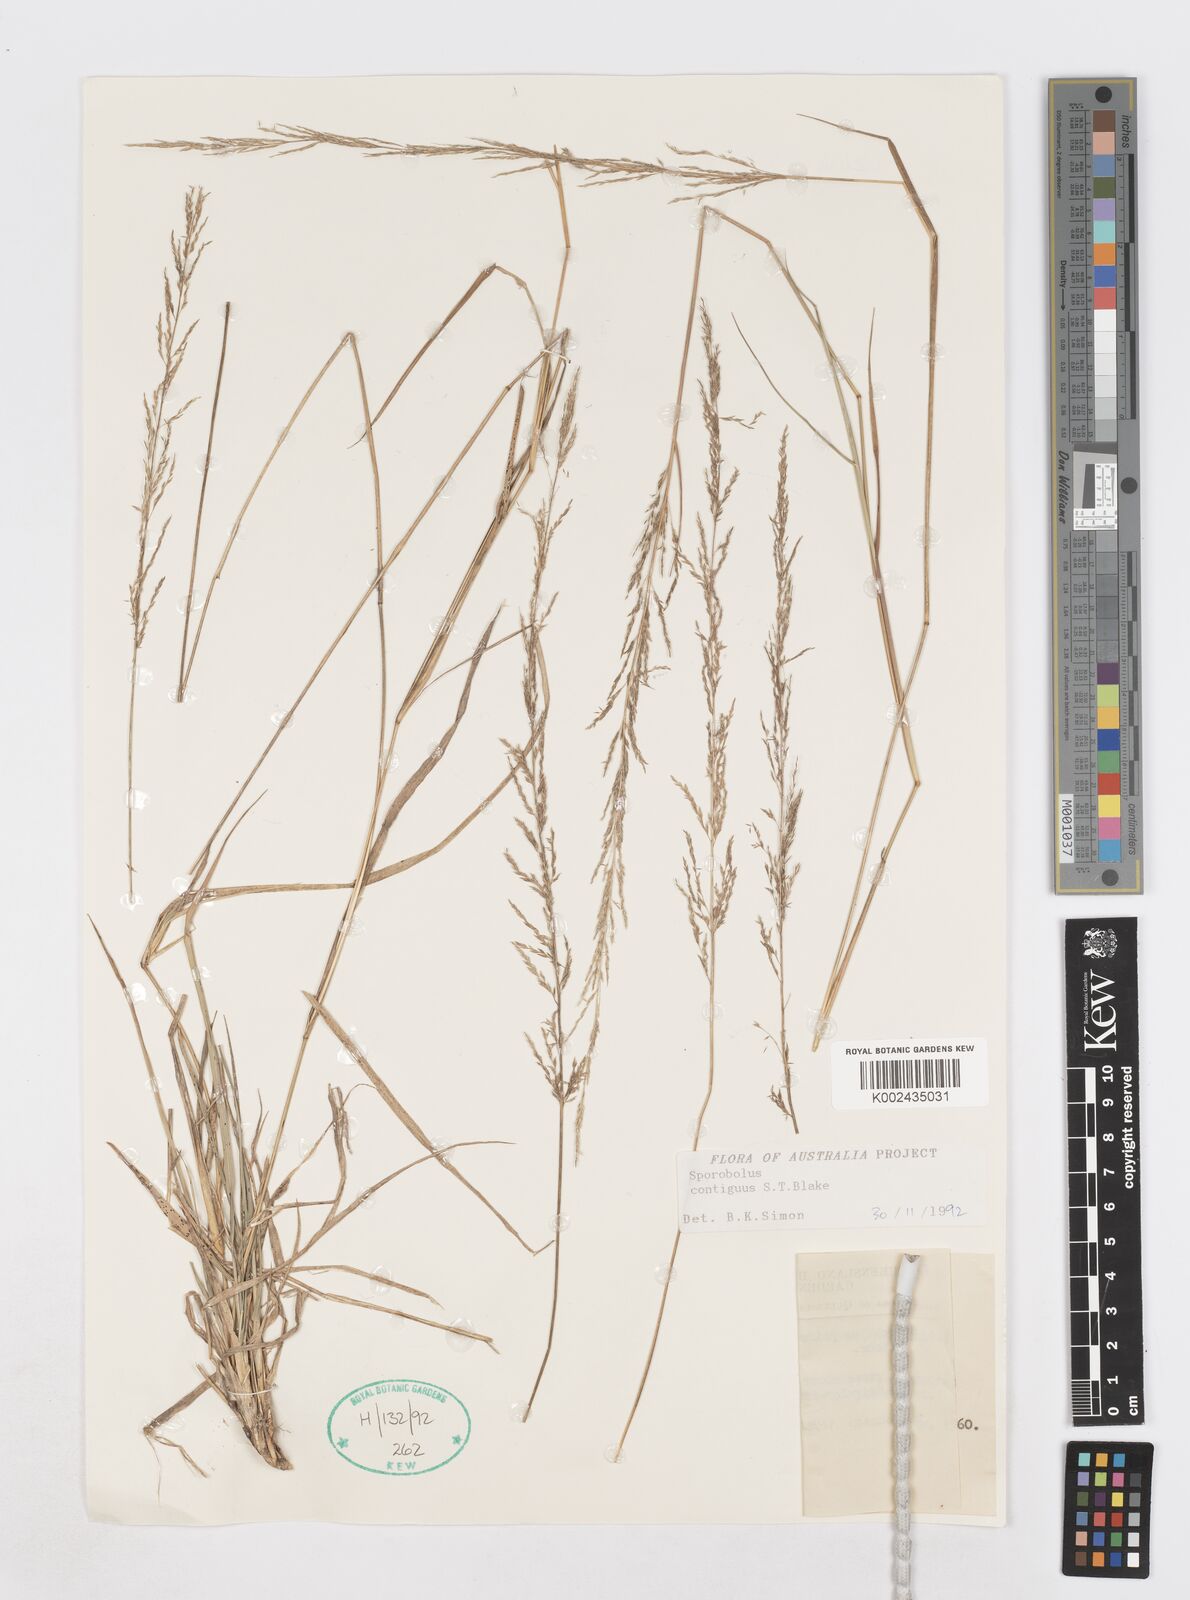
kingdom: Plantae
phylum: Tracheophyta
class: Liliopsida
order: Poales
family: Poaceae
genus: Sporobolus
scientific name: Sporobolus contiguus
